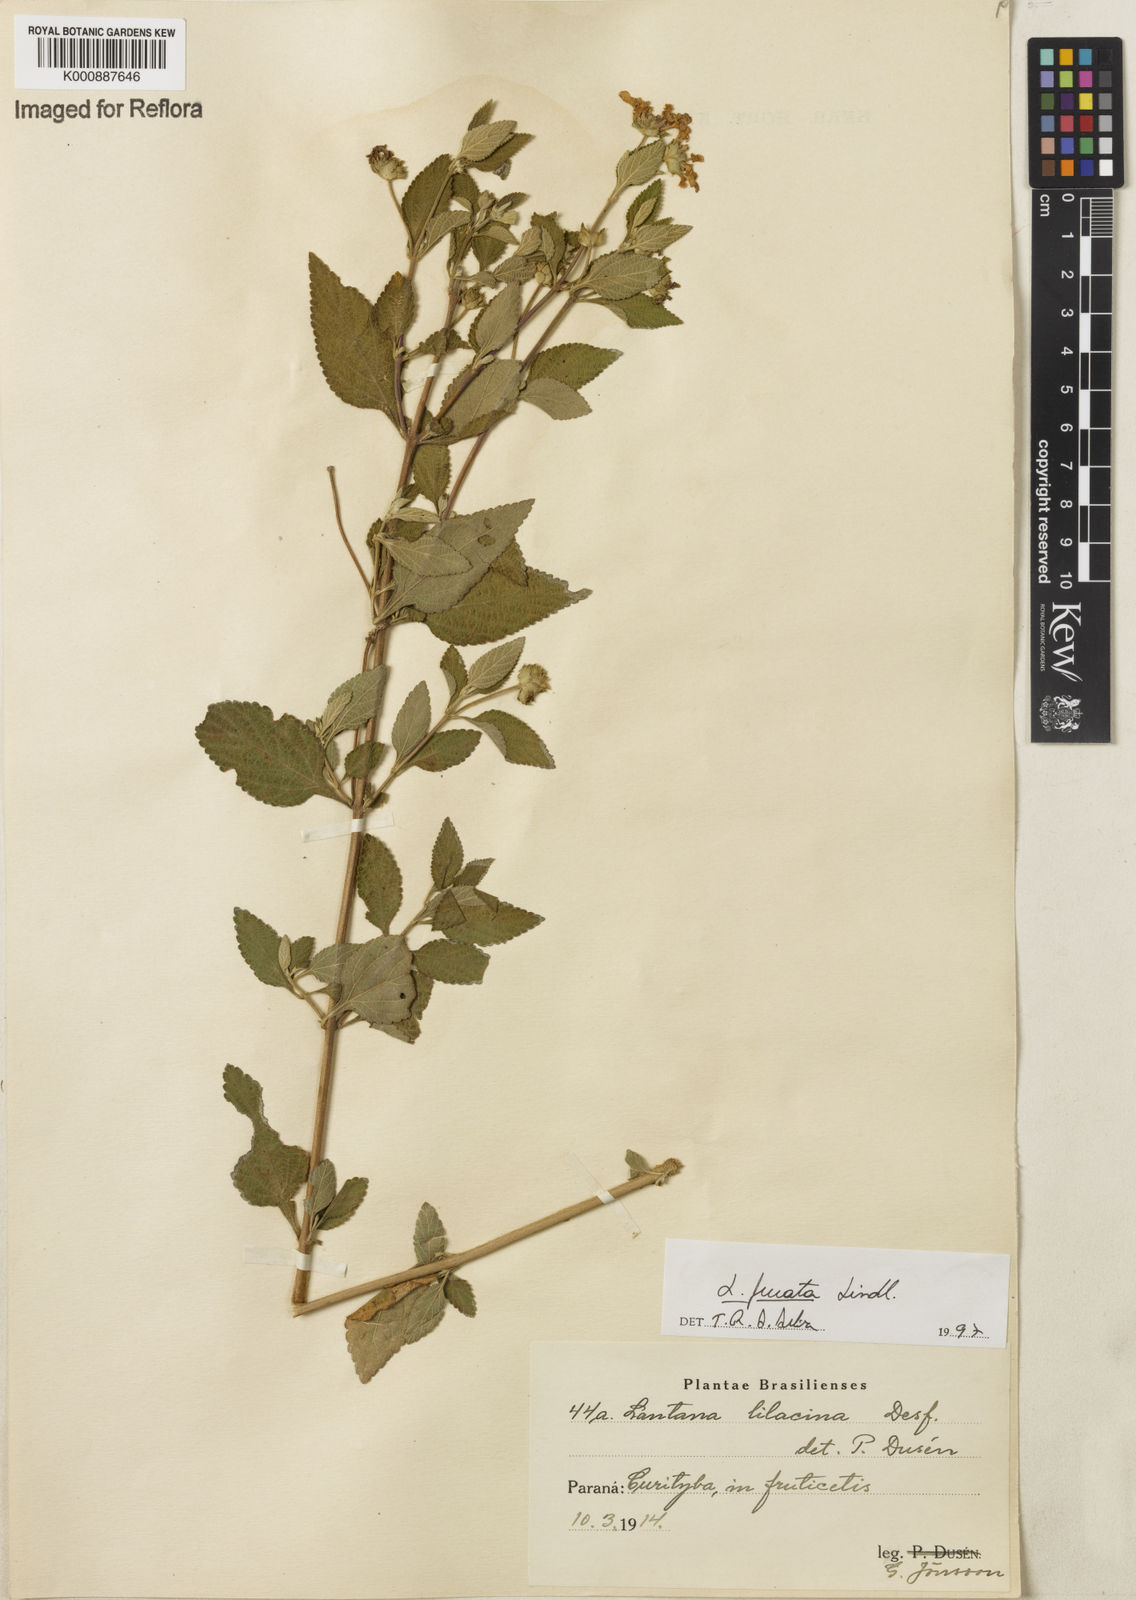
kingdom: Plantae
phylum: Tracheophyta
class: Magnoliopsida
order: Lamiales
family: Verbenaceae
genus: Lantana
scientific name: Lantana fucata
